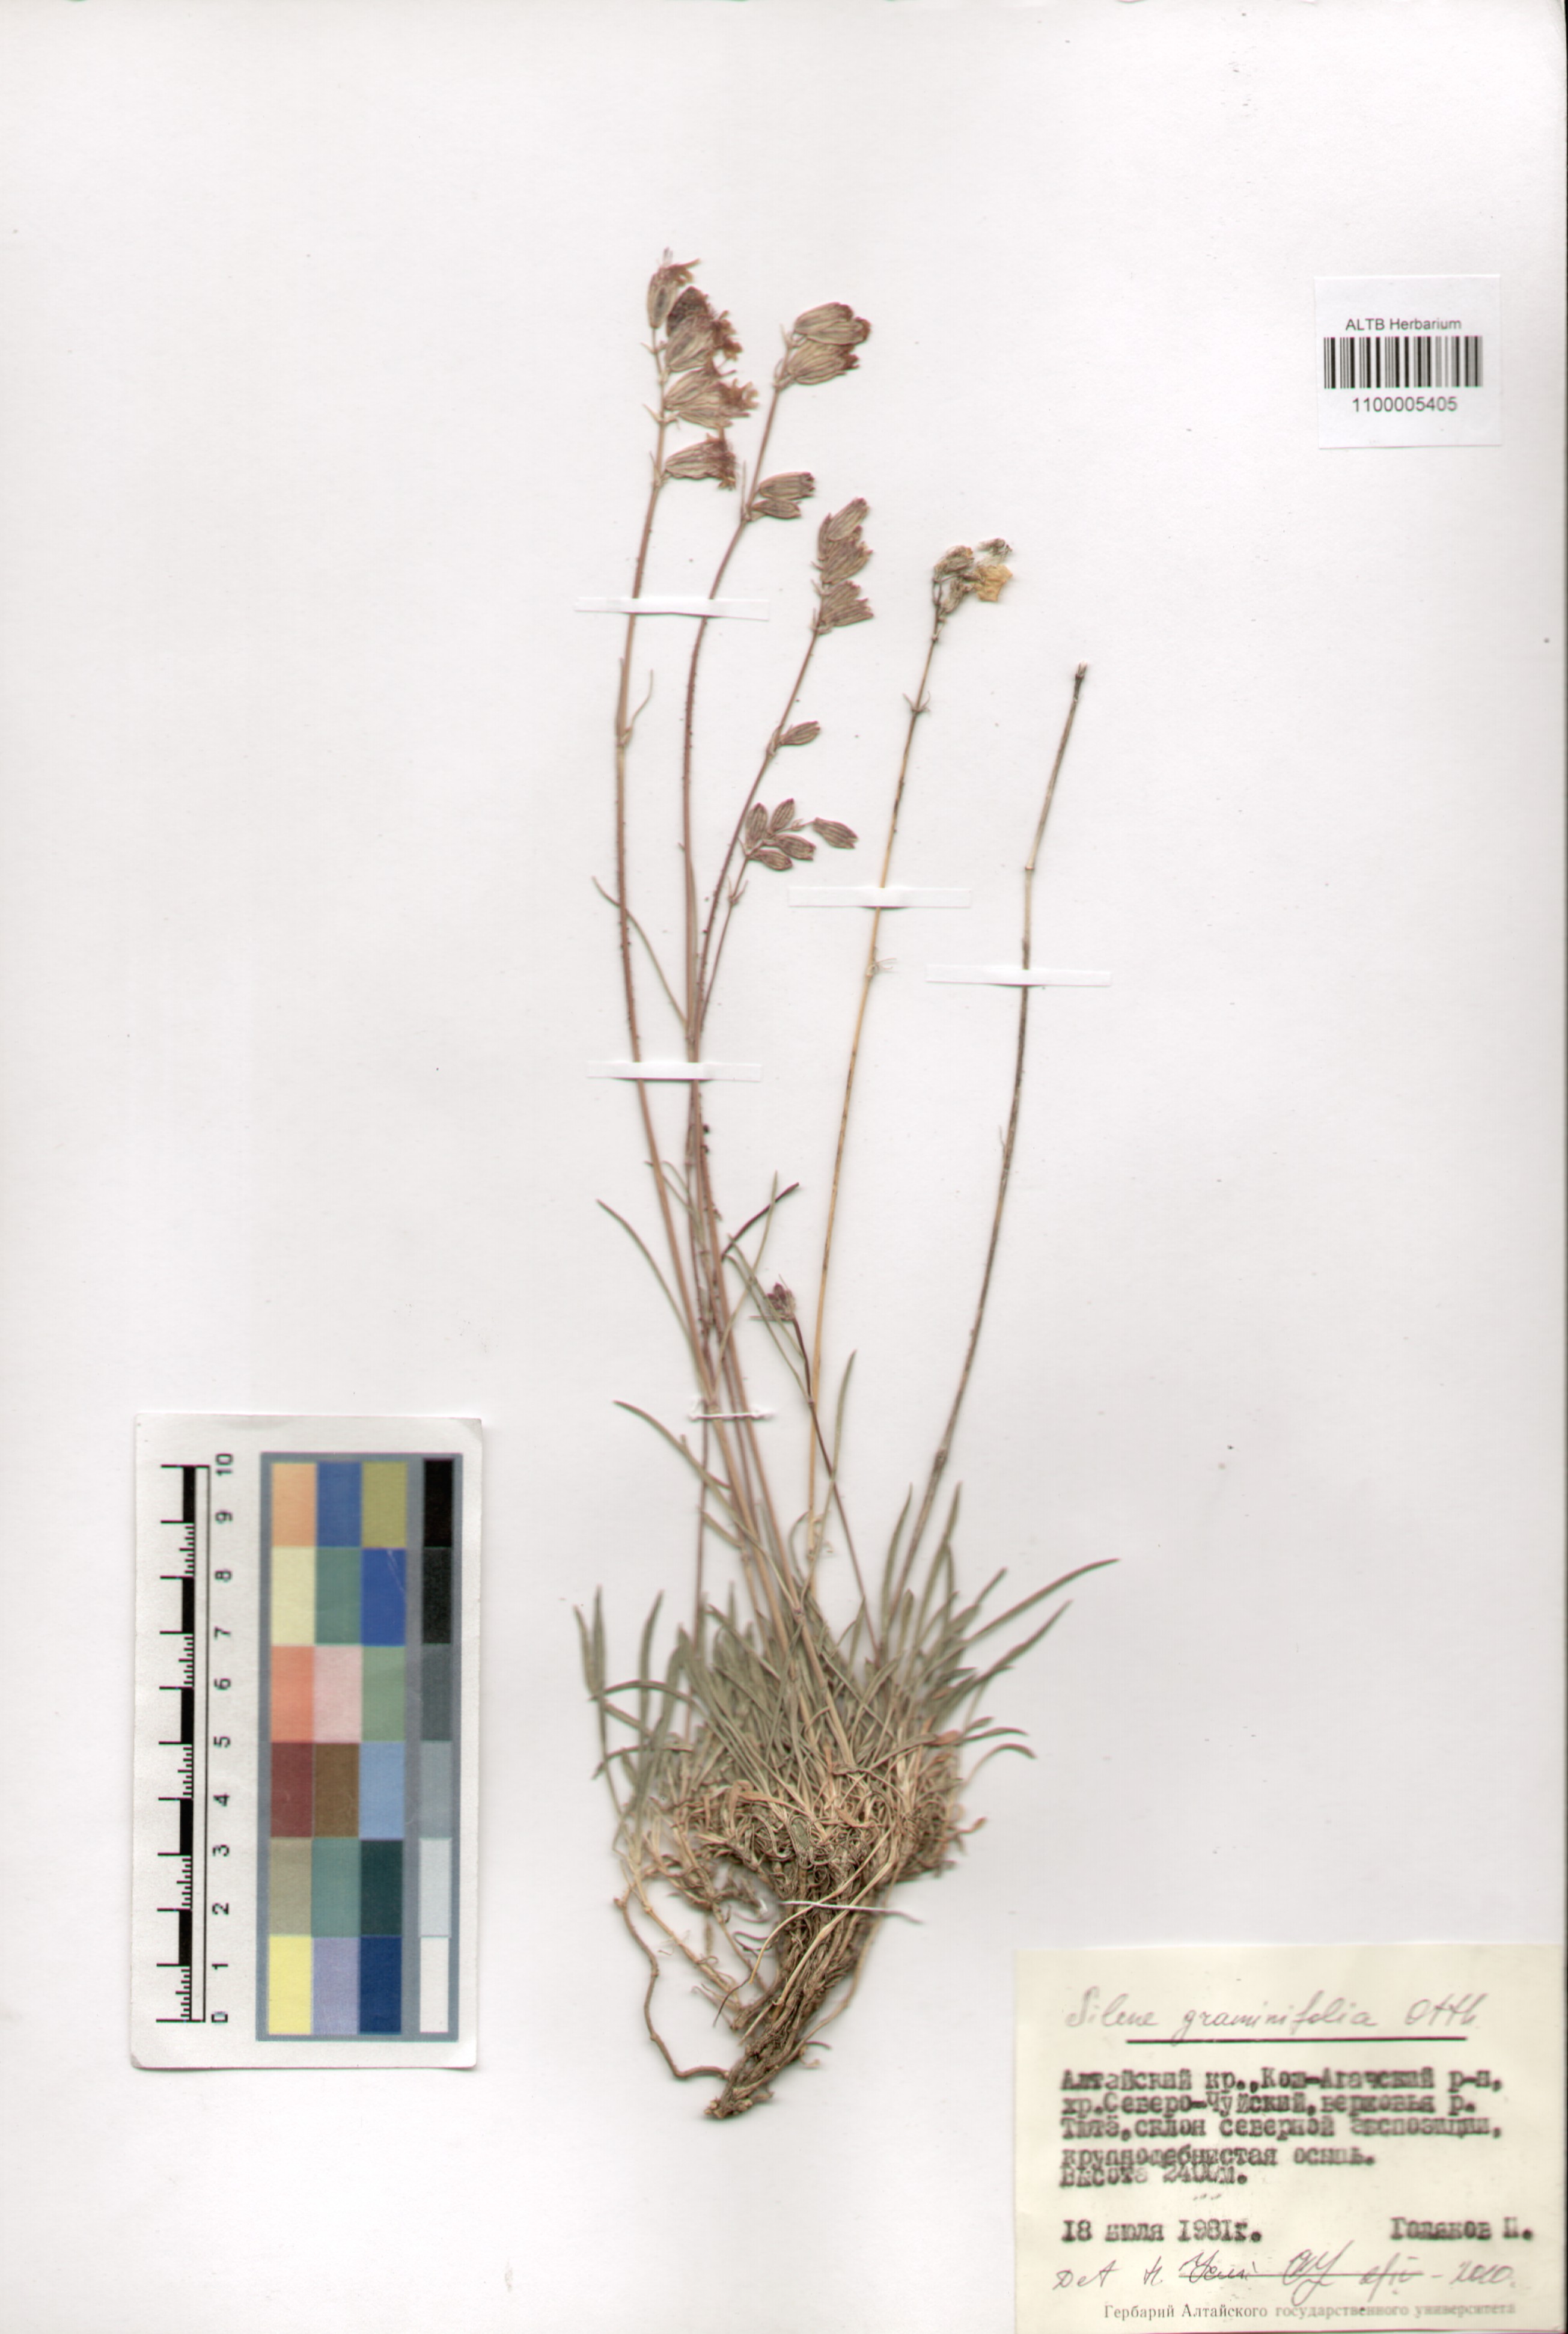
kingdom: Plantae
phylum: Tracheophyta
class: Magnoliopsida
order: Caryophyllales
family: Caryophyllaceae
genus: Silene
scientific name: Silene graminifolia
